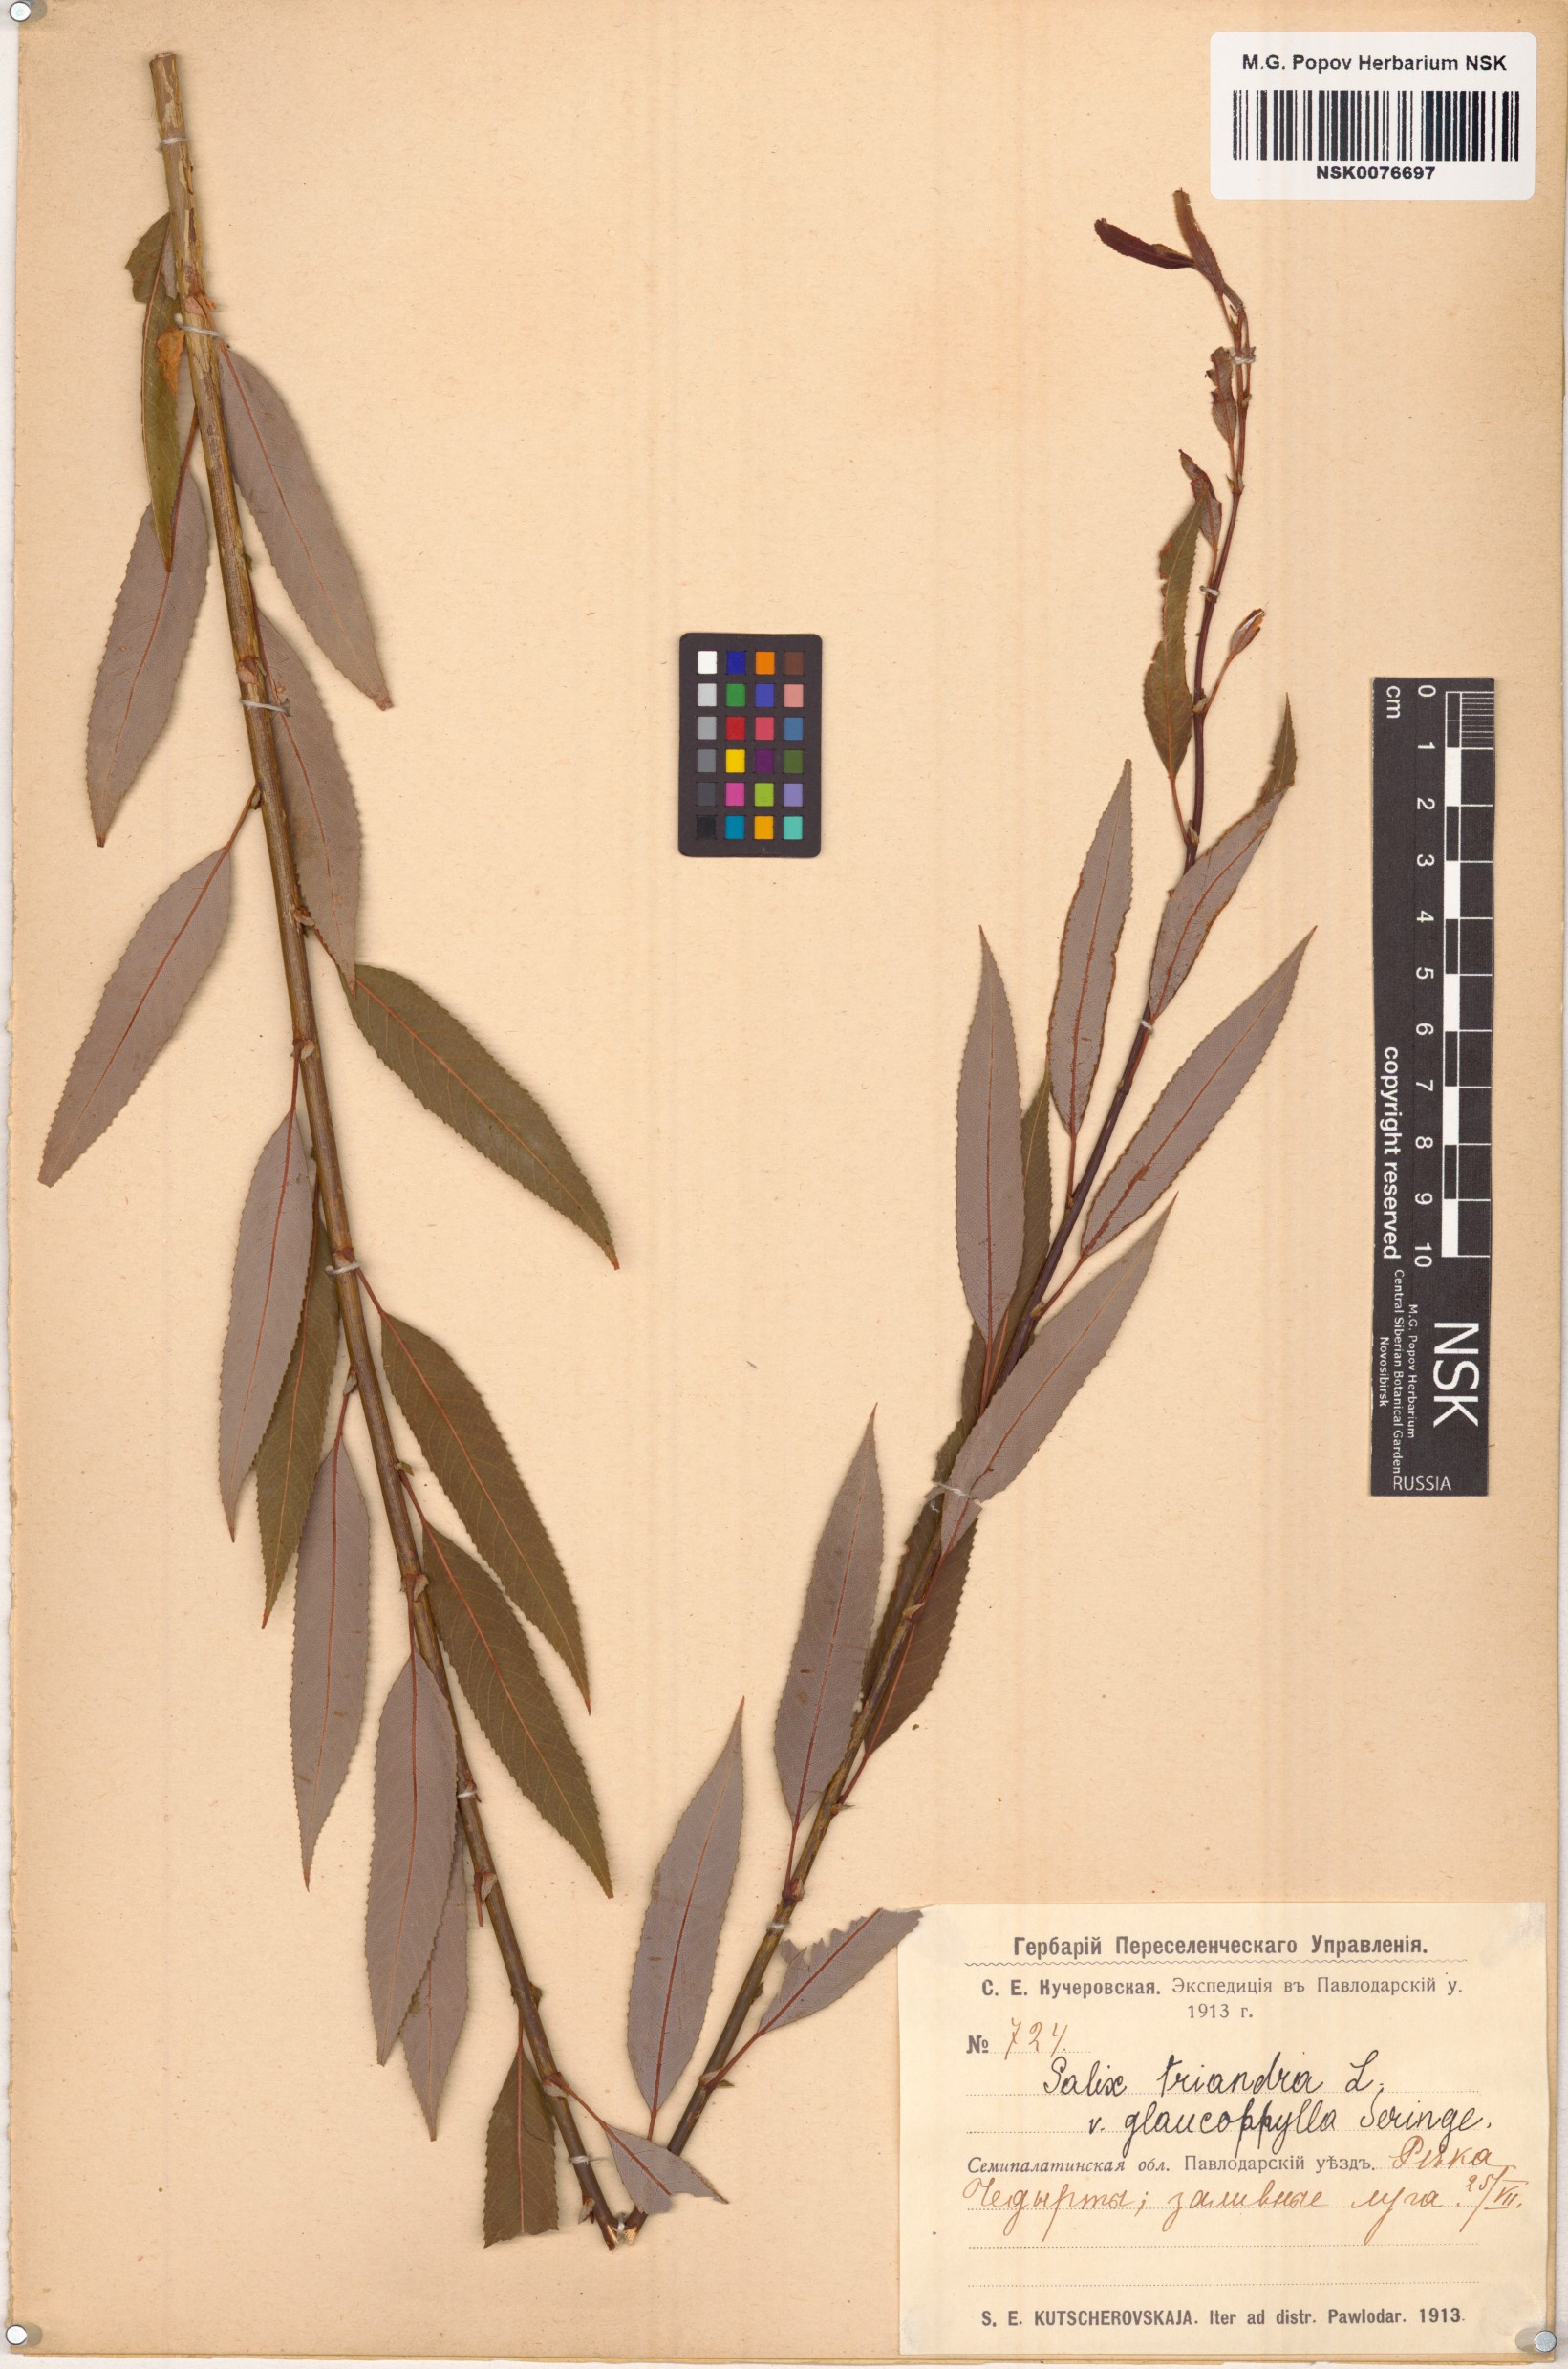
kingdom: Plantae
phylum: Tracheophyta
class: Magnoliopsida
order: Malpighiales
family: Salicaceae
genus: Salix
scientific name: Salix triandra
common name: Almond willow
